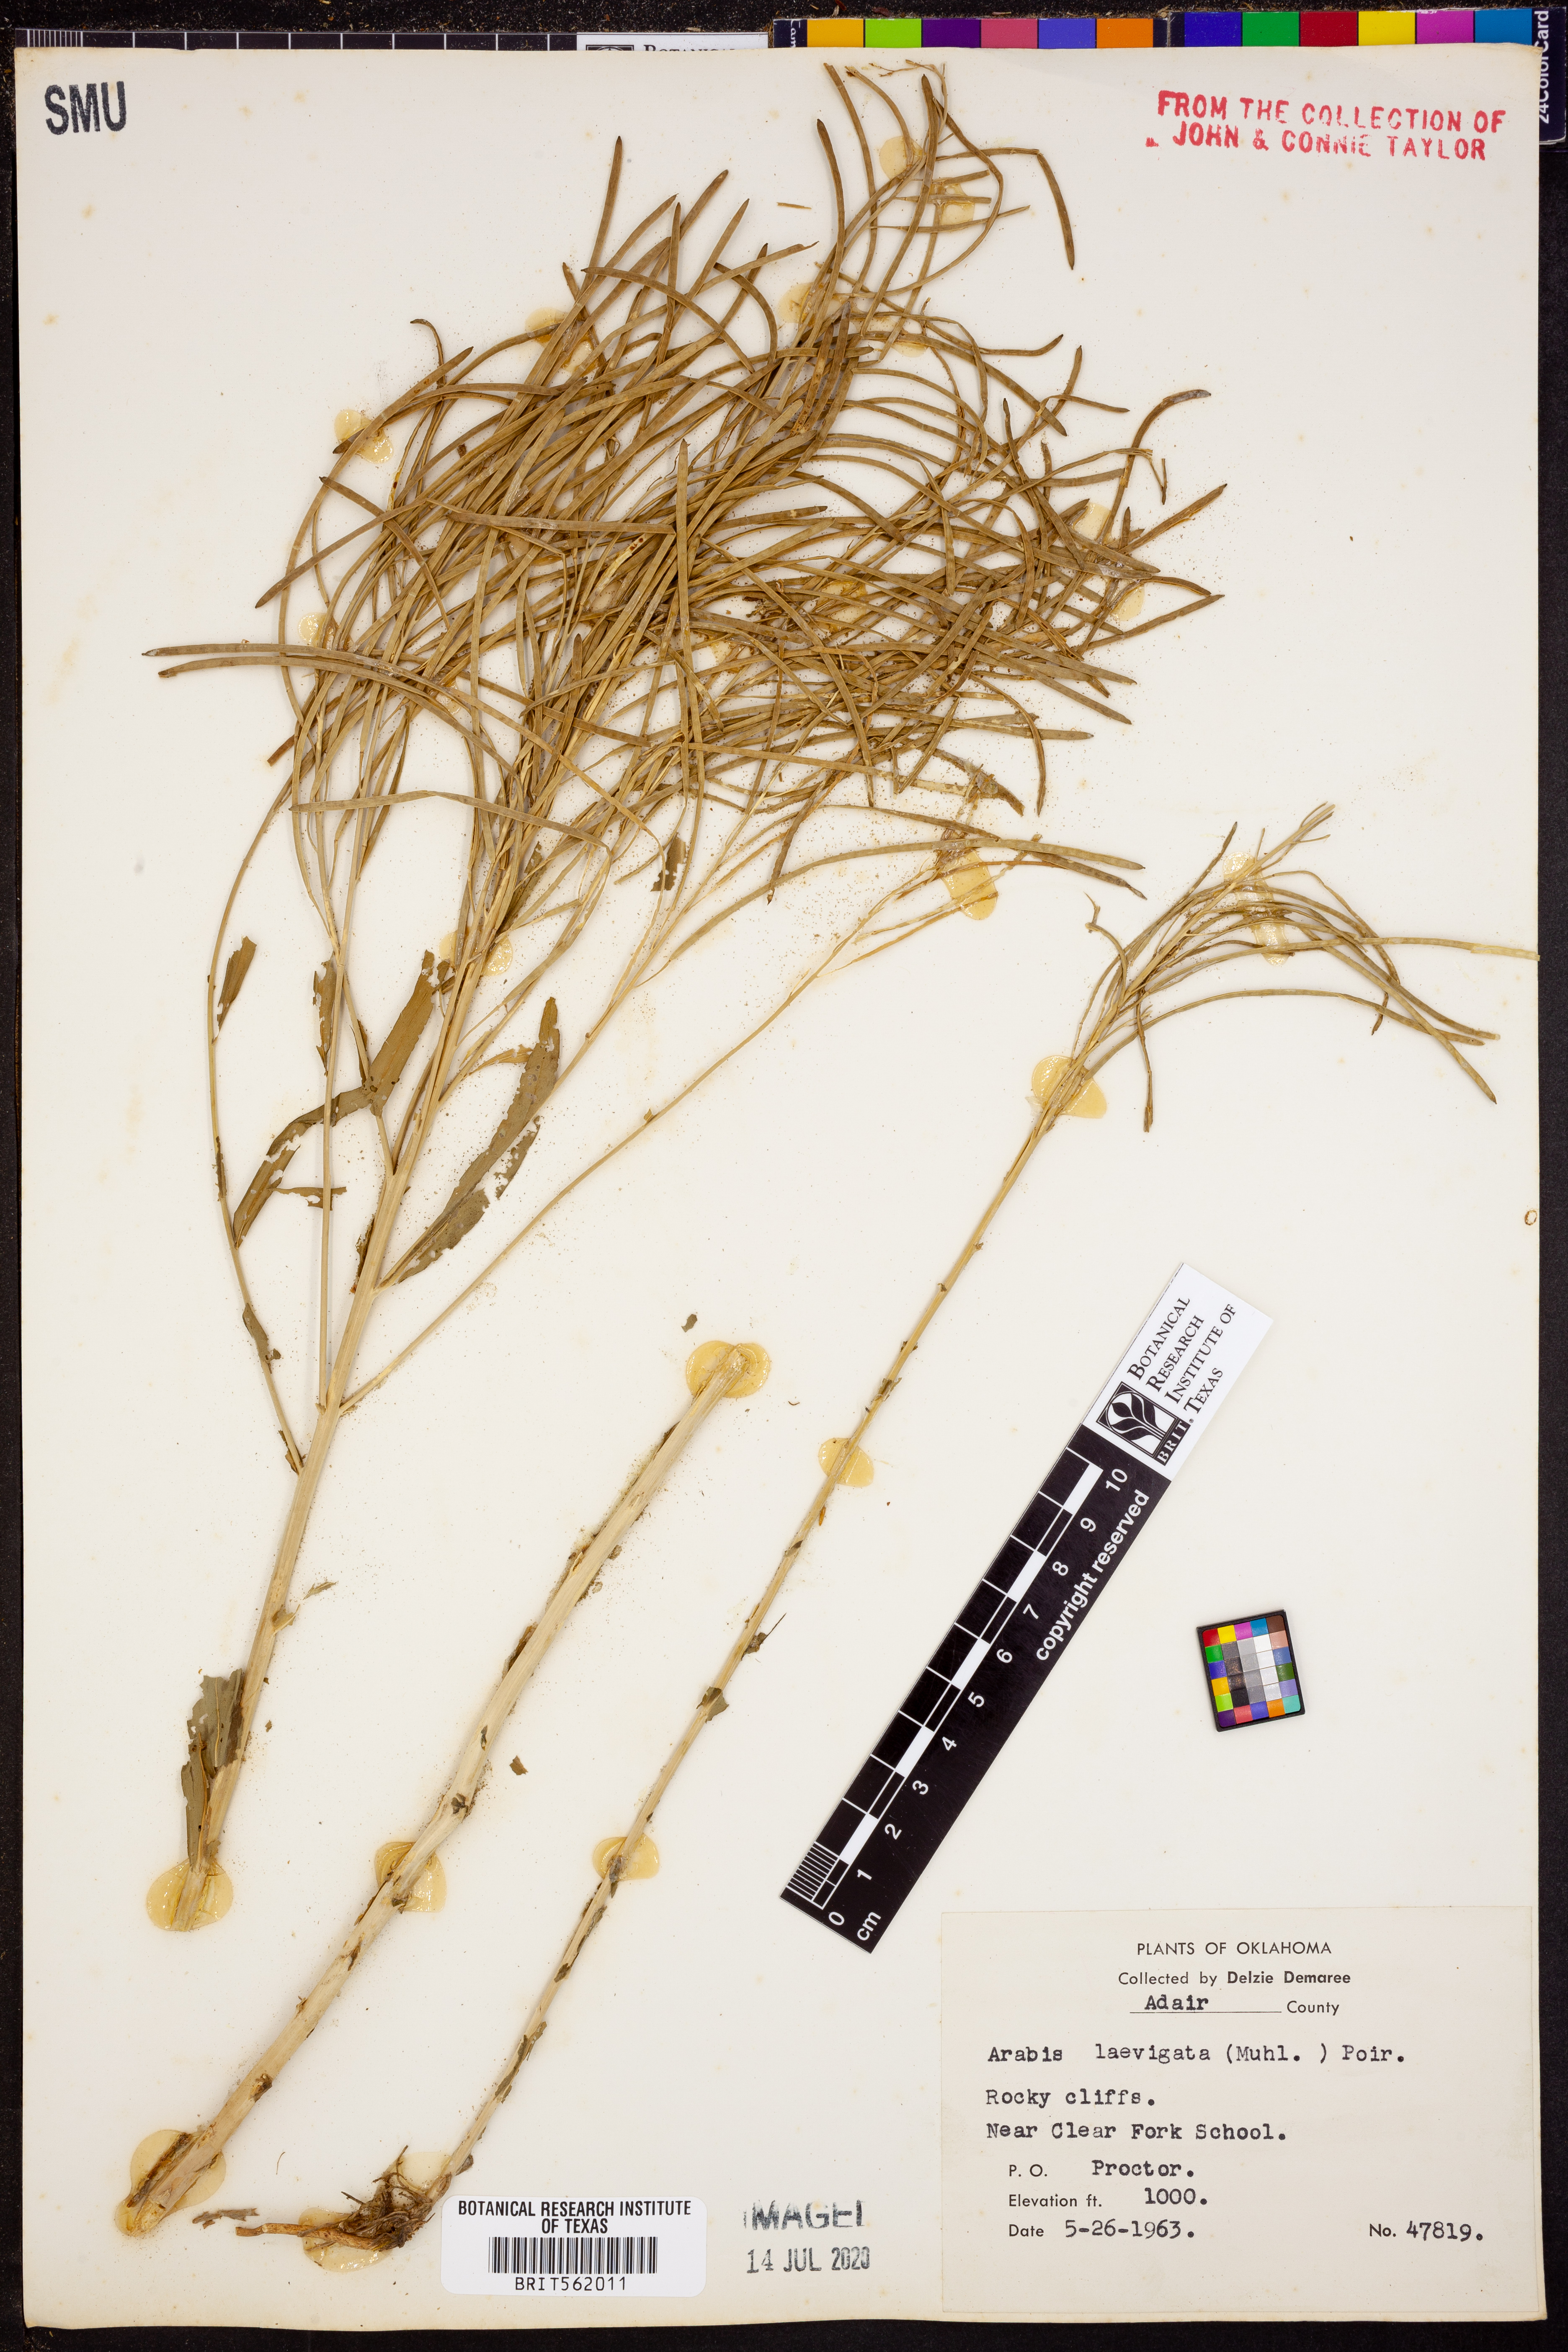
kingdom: Plantae
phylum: Tracheophyta
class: Magnoliopsida
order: Brassicales
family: Brassicaceae
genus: Arabis
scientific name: Arabis laevigata
